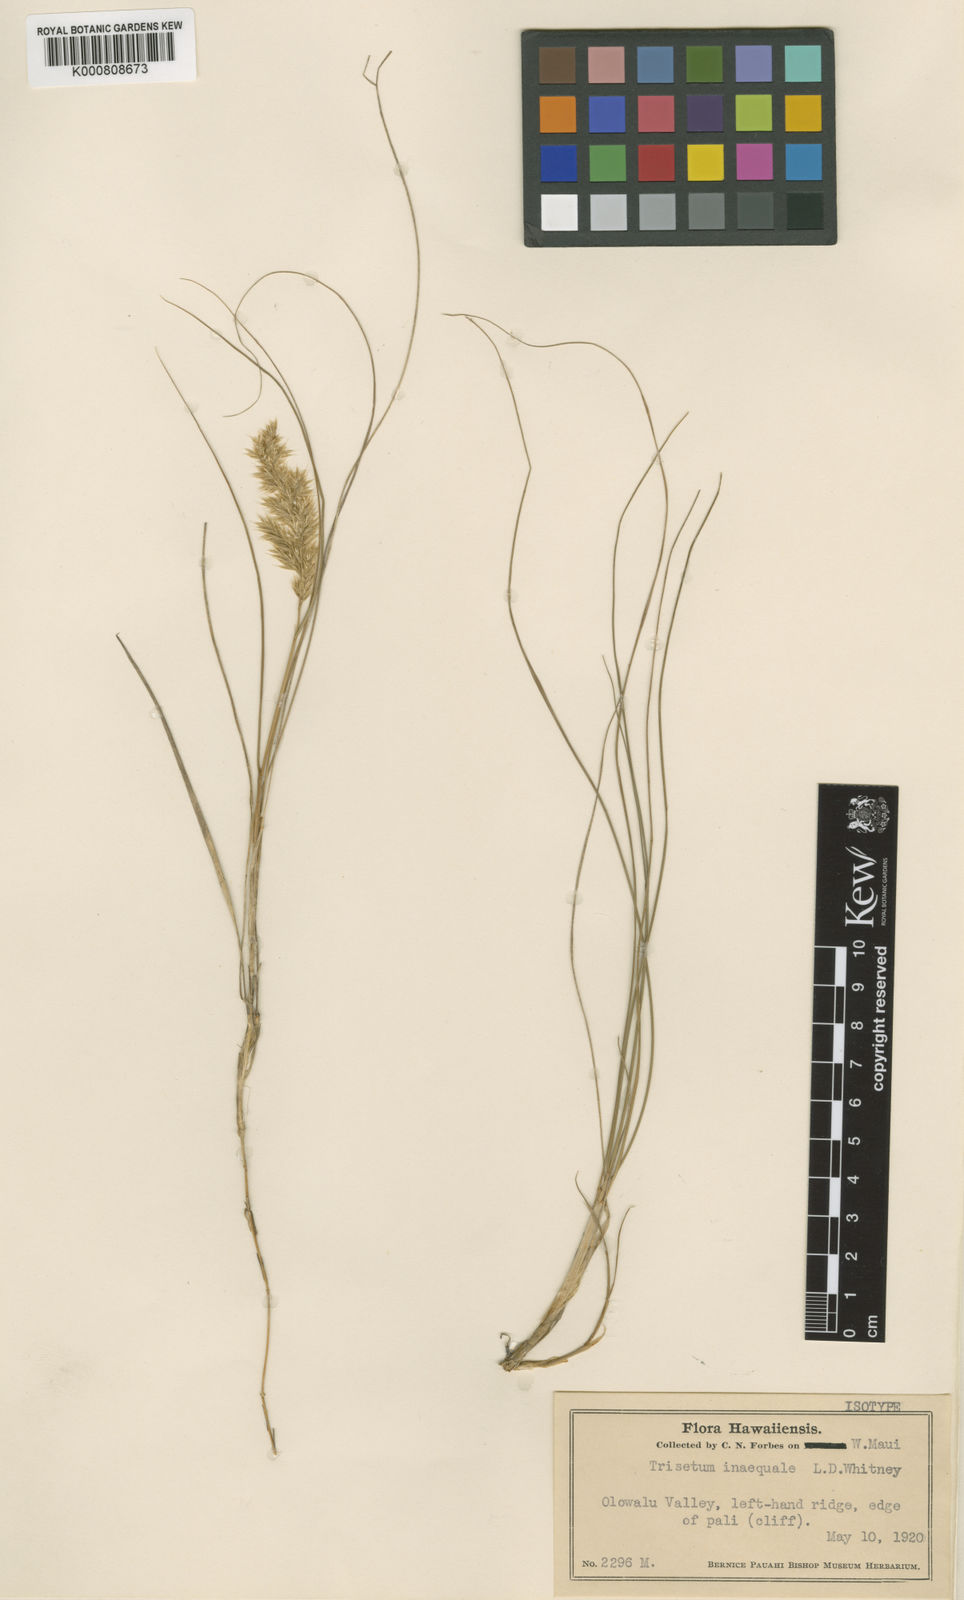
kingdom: Plantae
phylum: Tracheophyta
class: Liliopsida
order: Poales
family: Poaceae
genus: Koeleria
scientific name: Koeleria inaequalis
